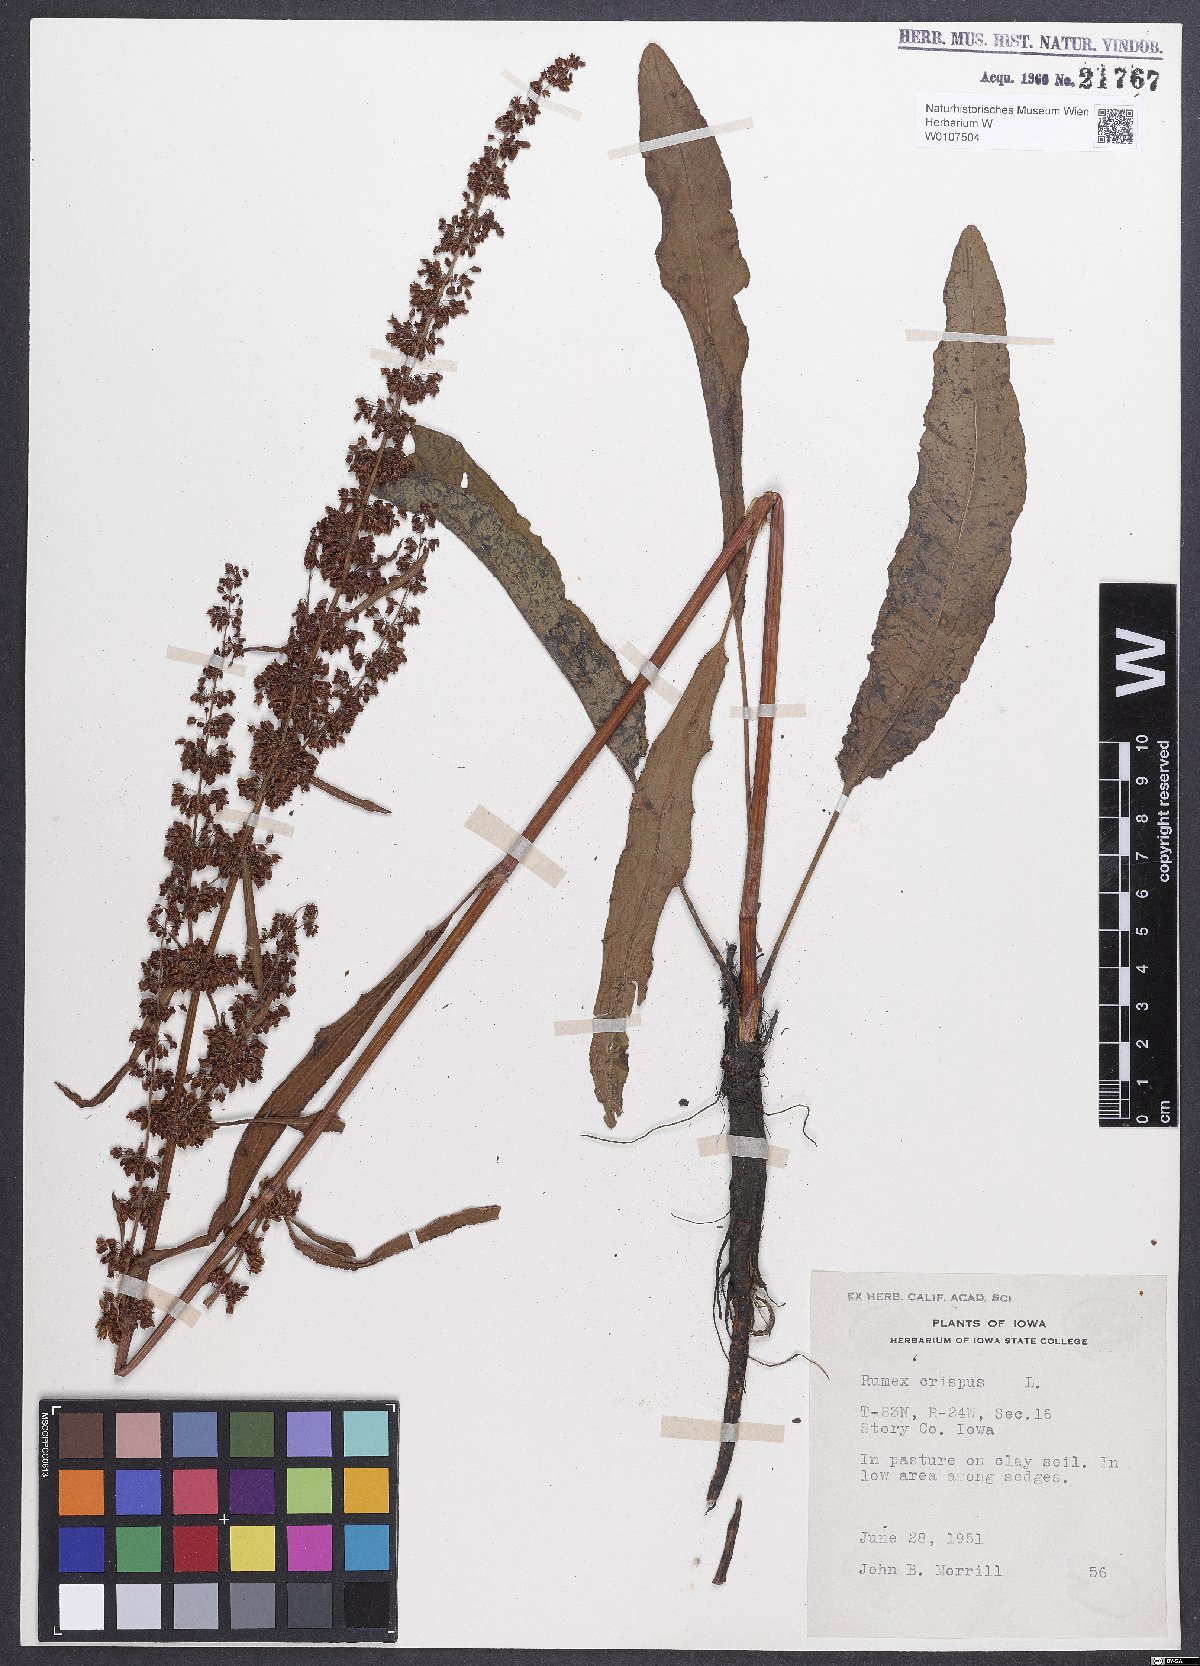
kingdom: Plantae
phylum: Tracheophyta
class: Magnoliopsida
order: Caryophyllales
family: Polygonaceae
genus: Rumex
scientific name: Rumex crispus
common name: Curled dock
